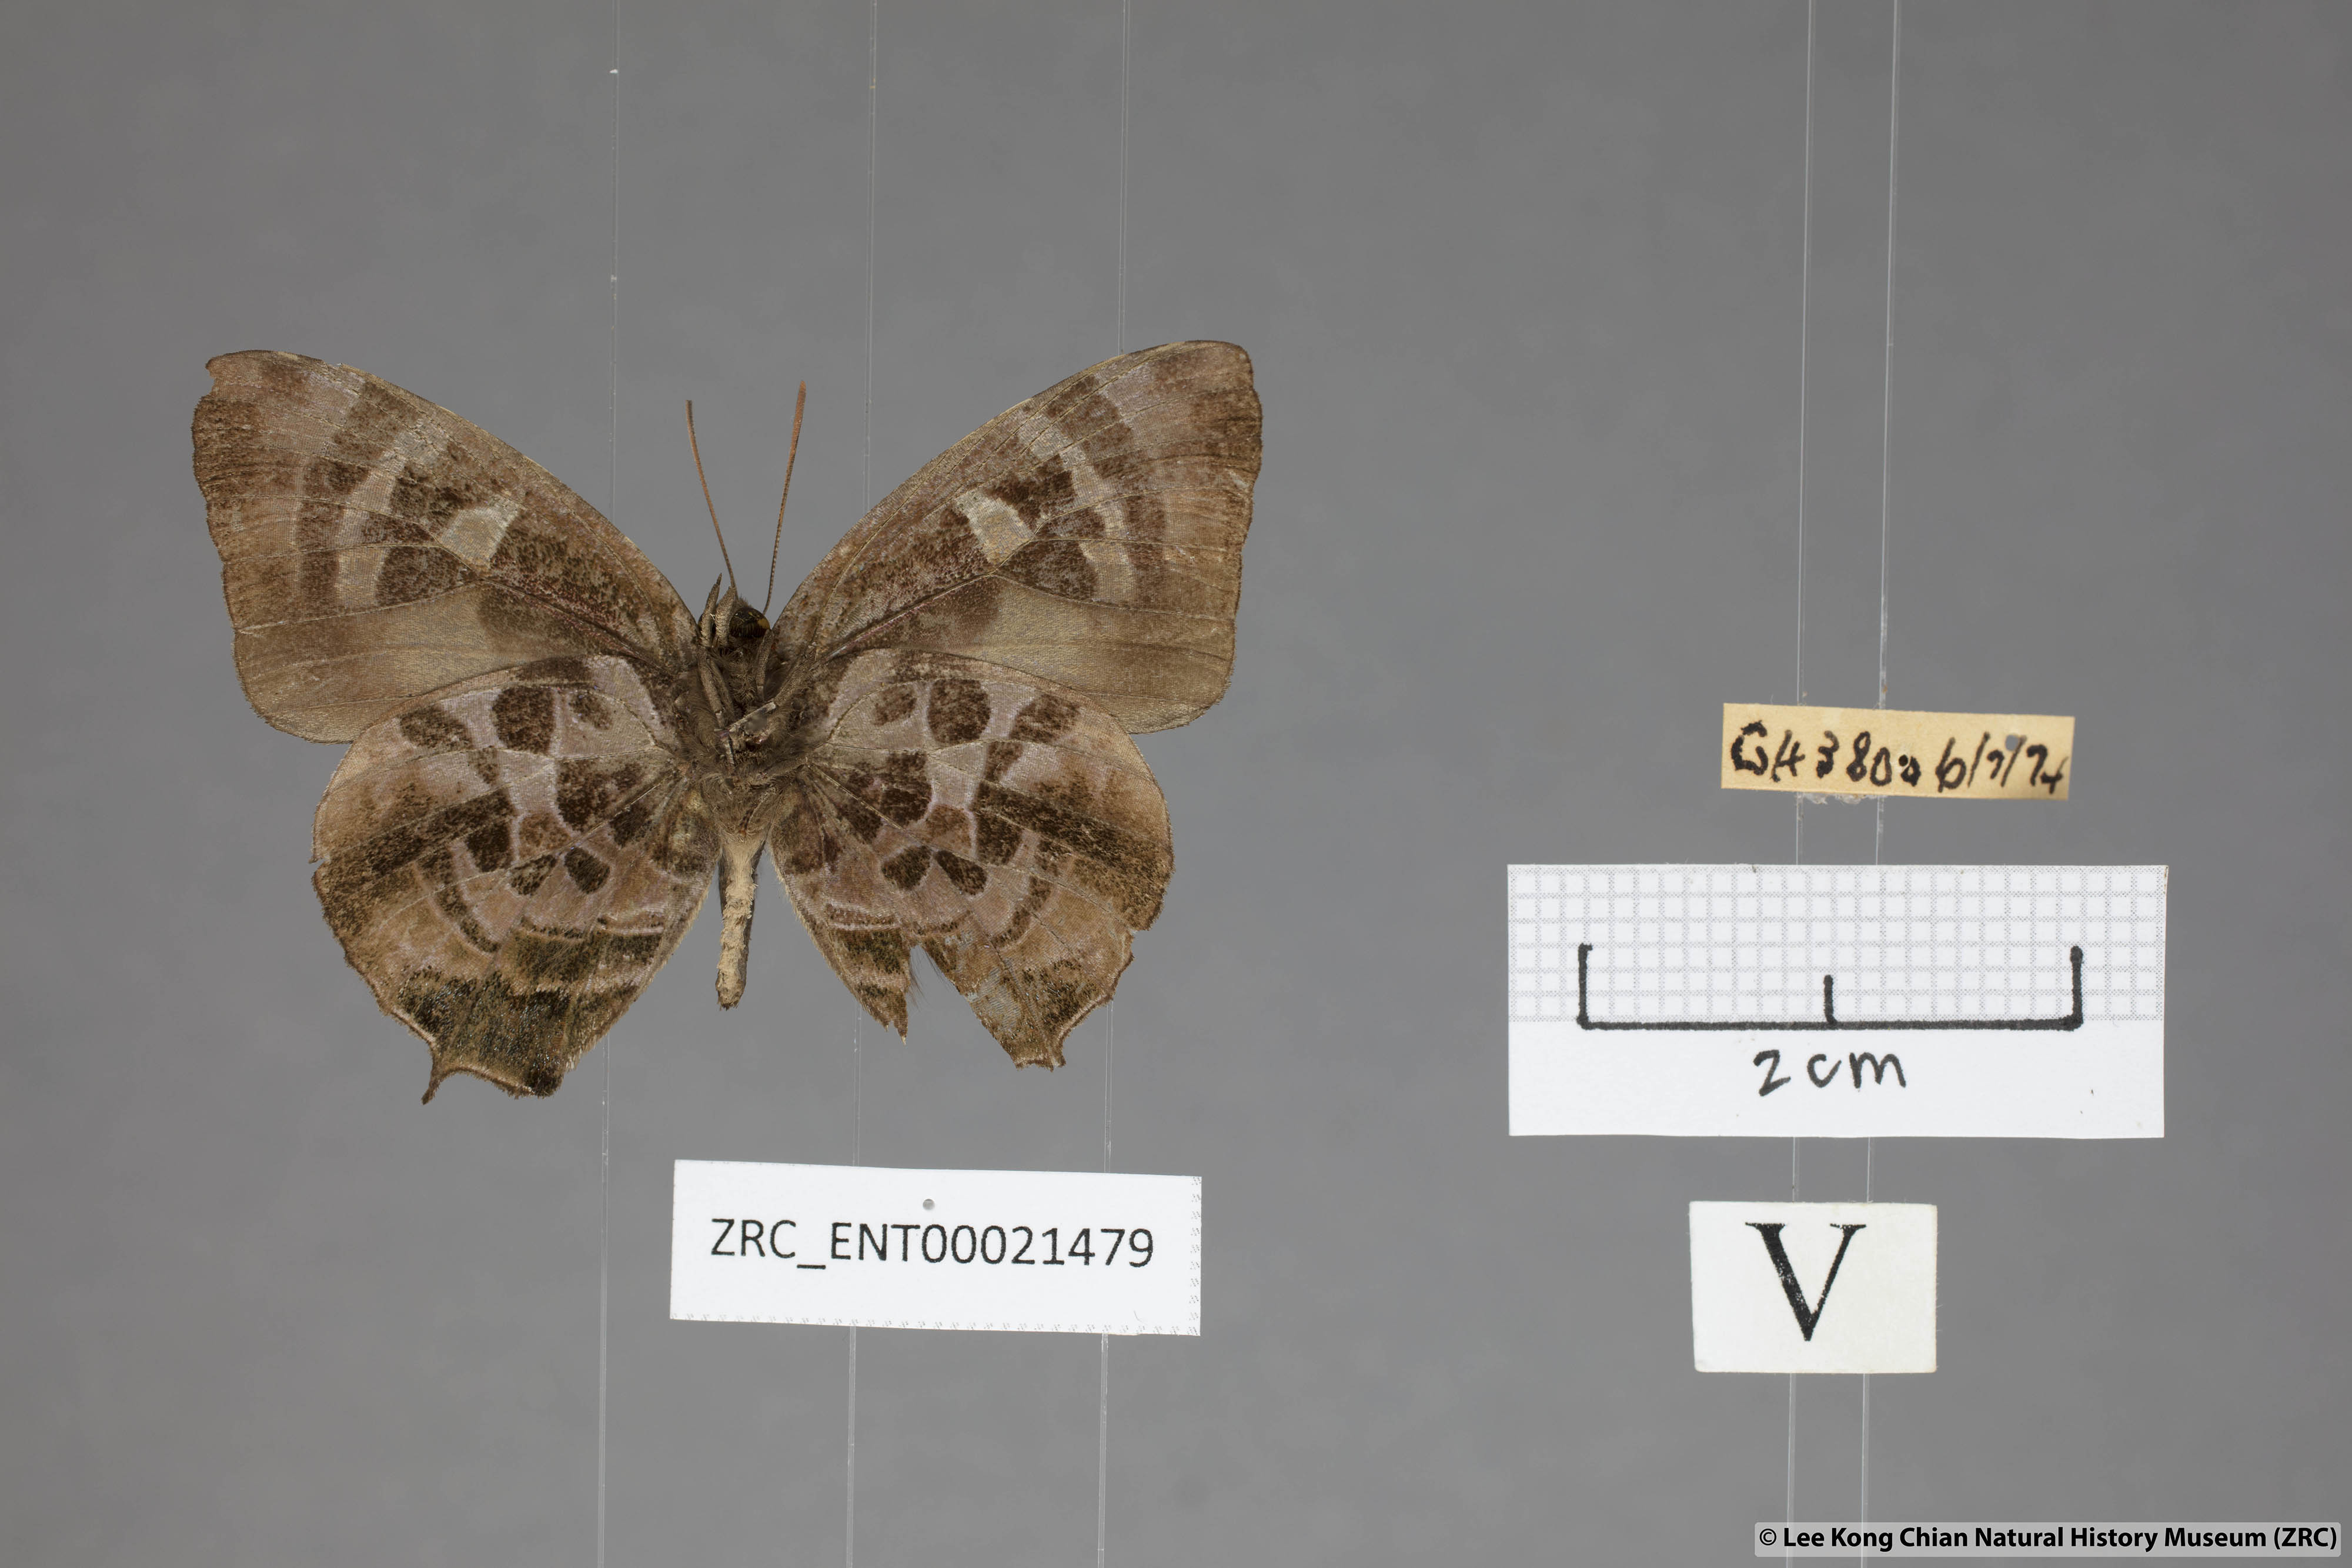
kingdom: Animalia
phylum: Arthropoda
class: Insecta
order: Lepidoptera
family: Lycaenidae
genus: Flos
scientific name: Flos
